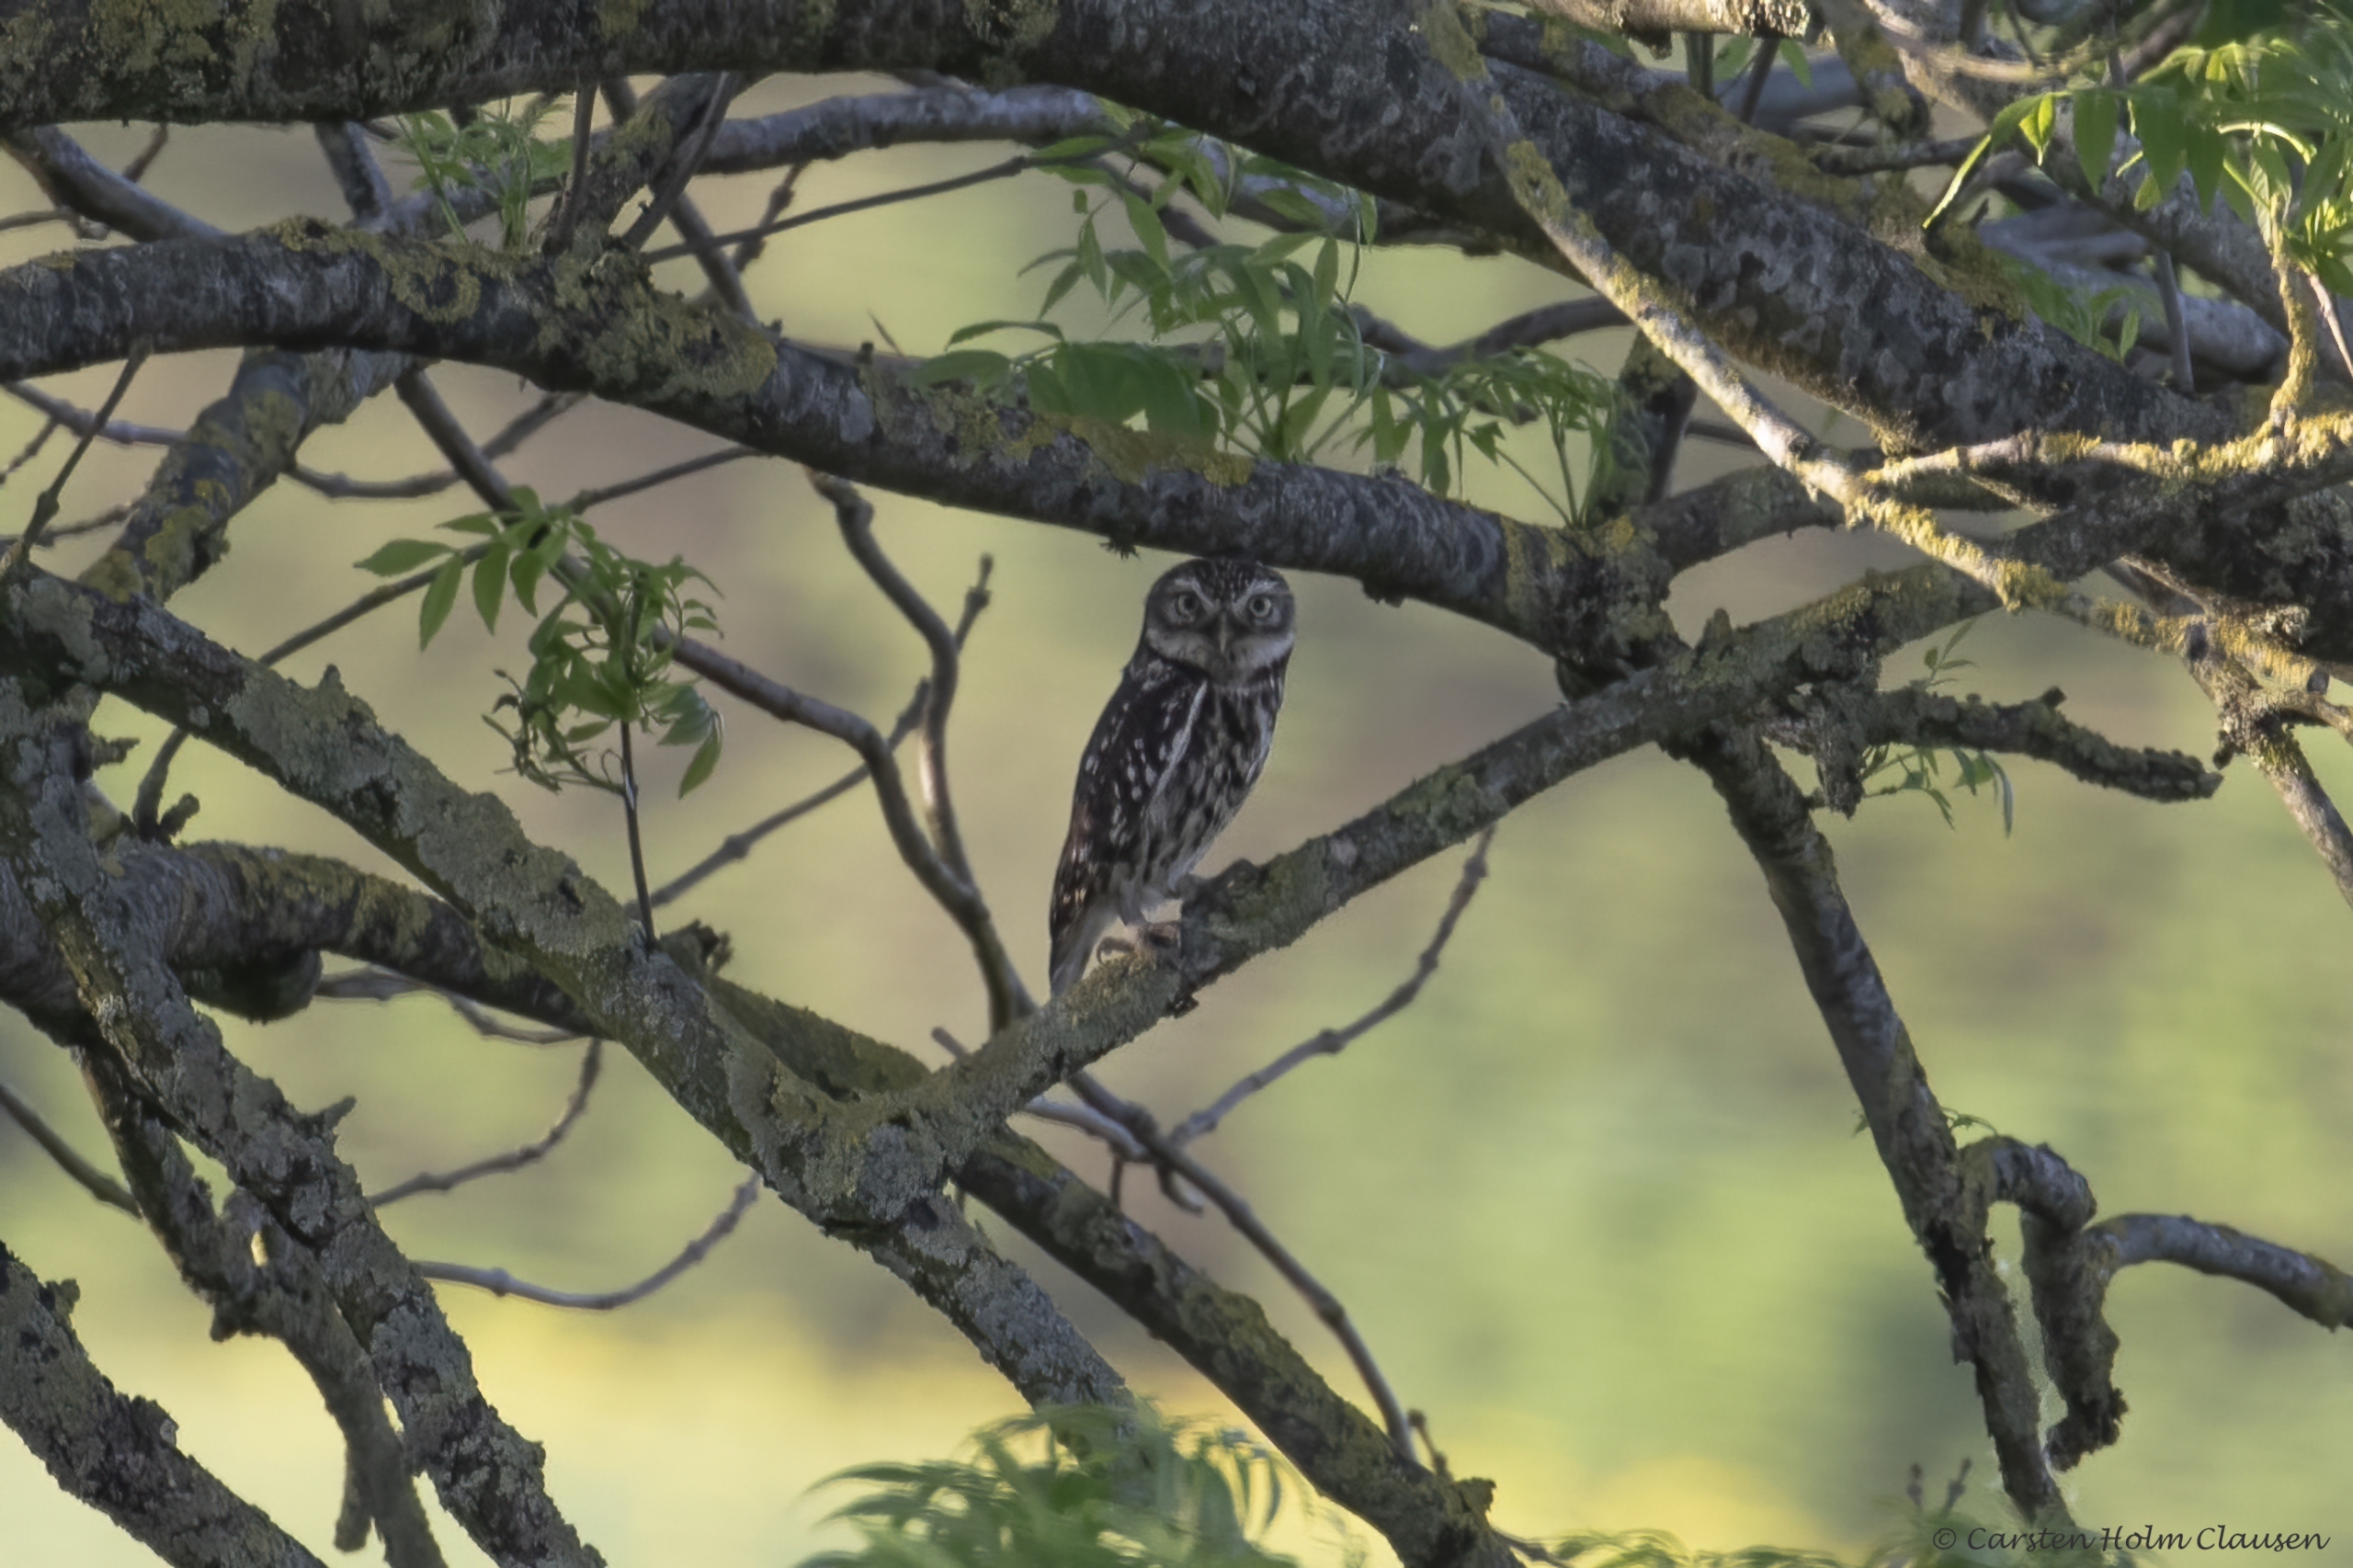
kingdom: Animalia
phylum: Chordata
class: Aves
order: Strigiformes
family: Strigidae
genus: Athene
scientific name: Athene noctua
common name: Kirkeugle
